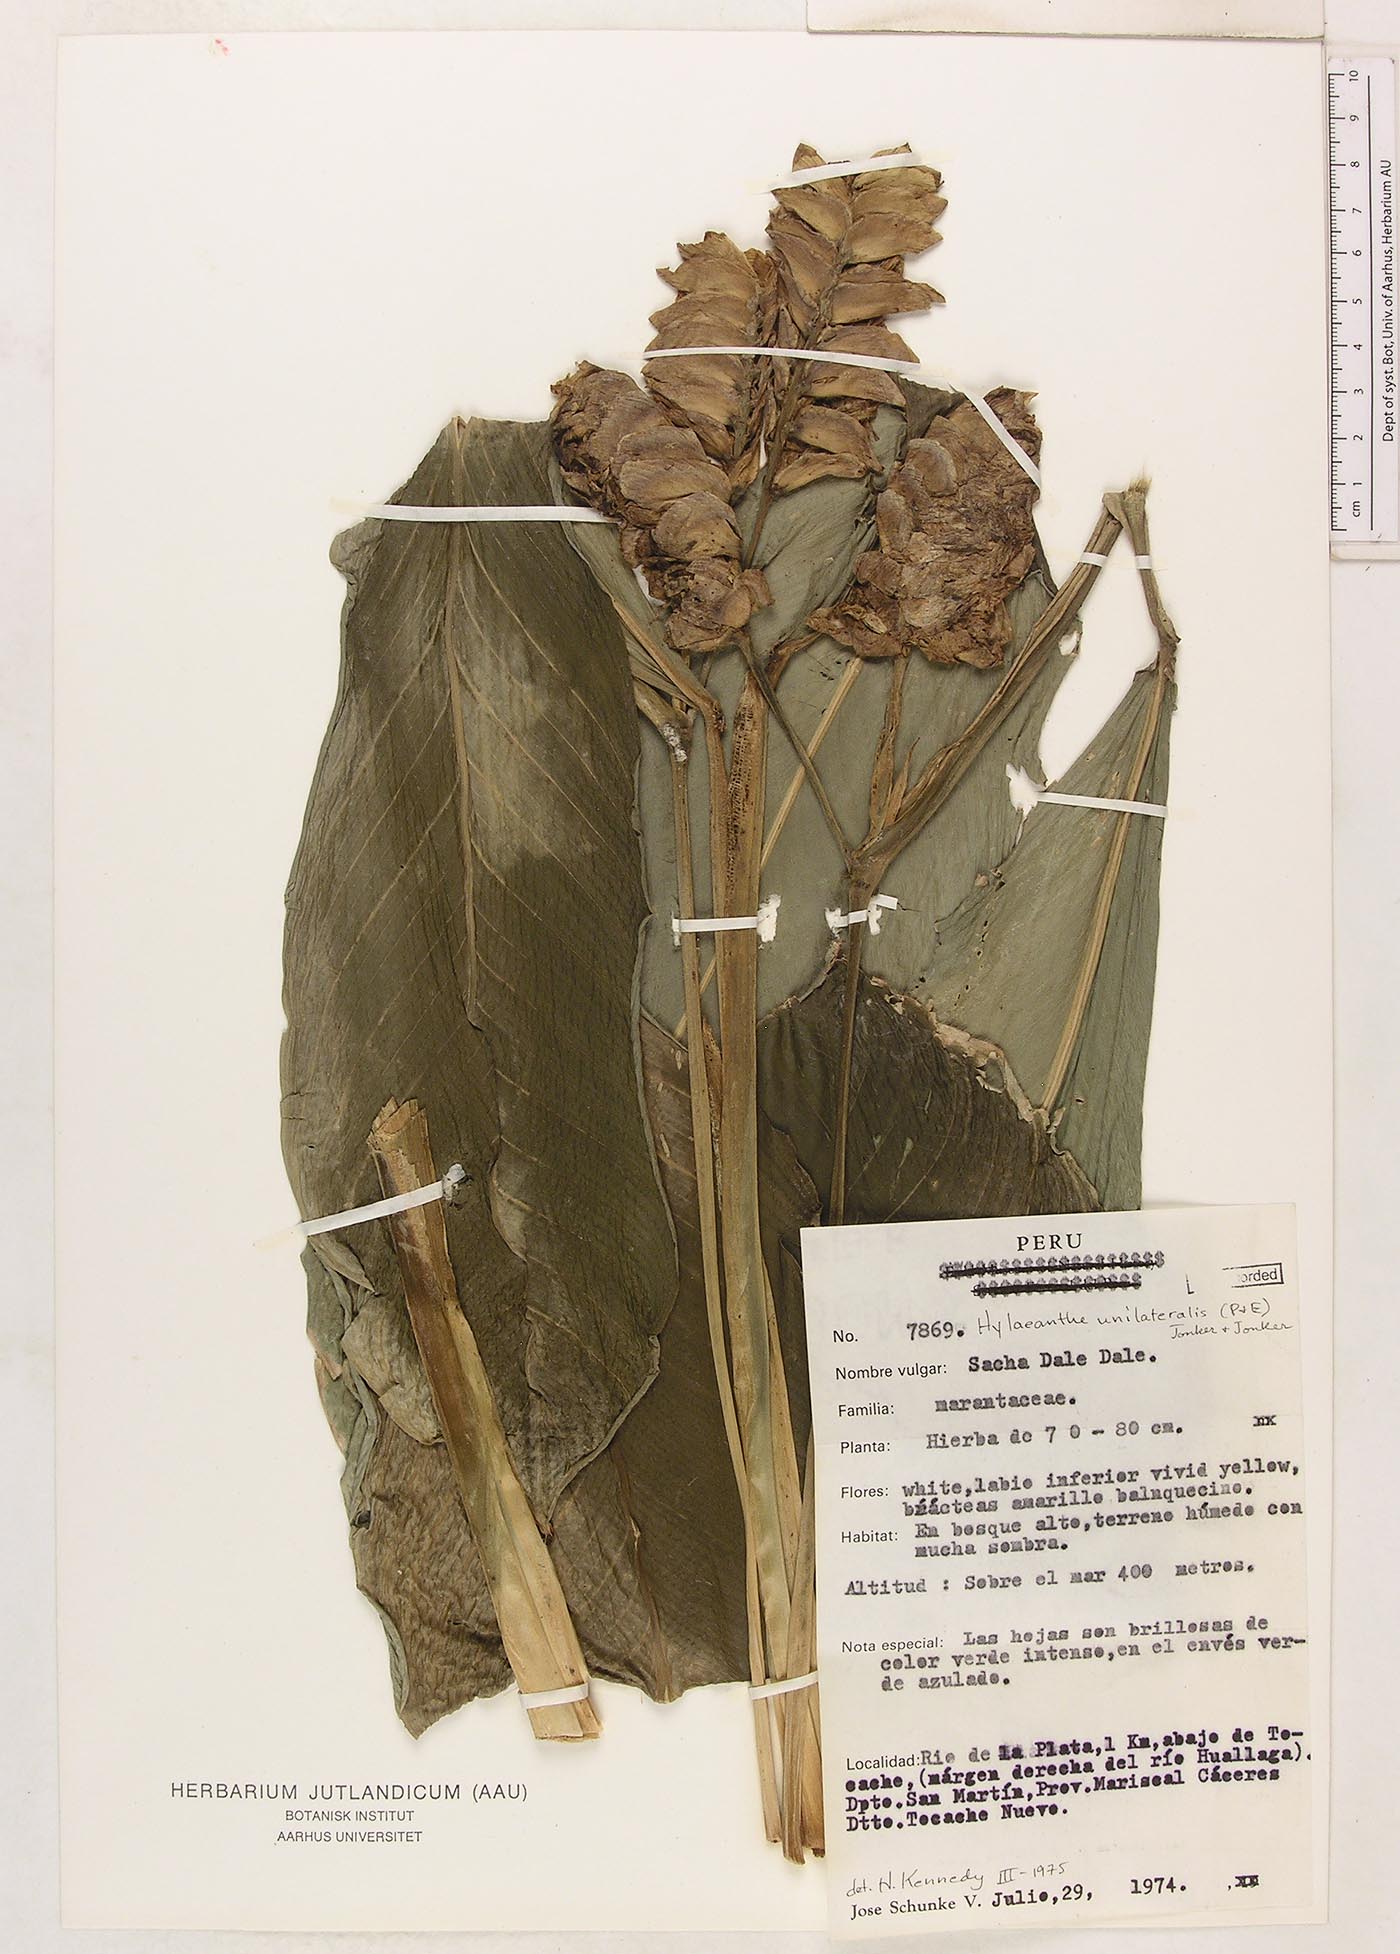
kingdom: Plantae
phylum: Tracheophyta
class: Liliopsida
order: Zingiberales
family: Marantaceae
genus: Hylaeanthe
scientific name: Hylaeanthe unilateralis
